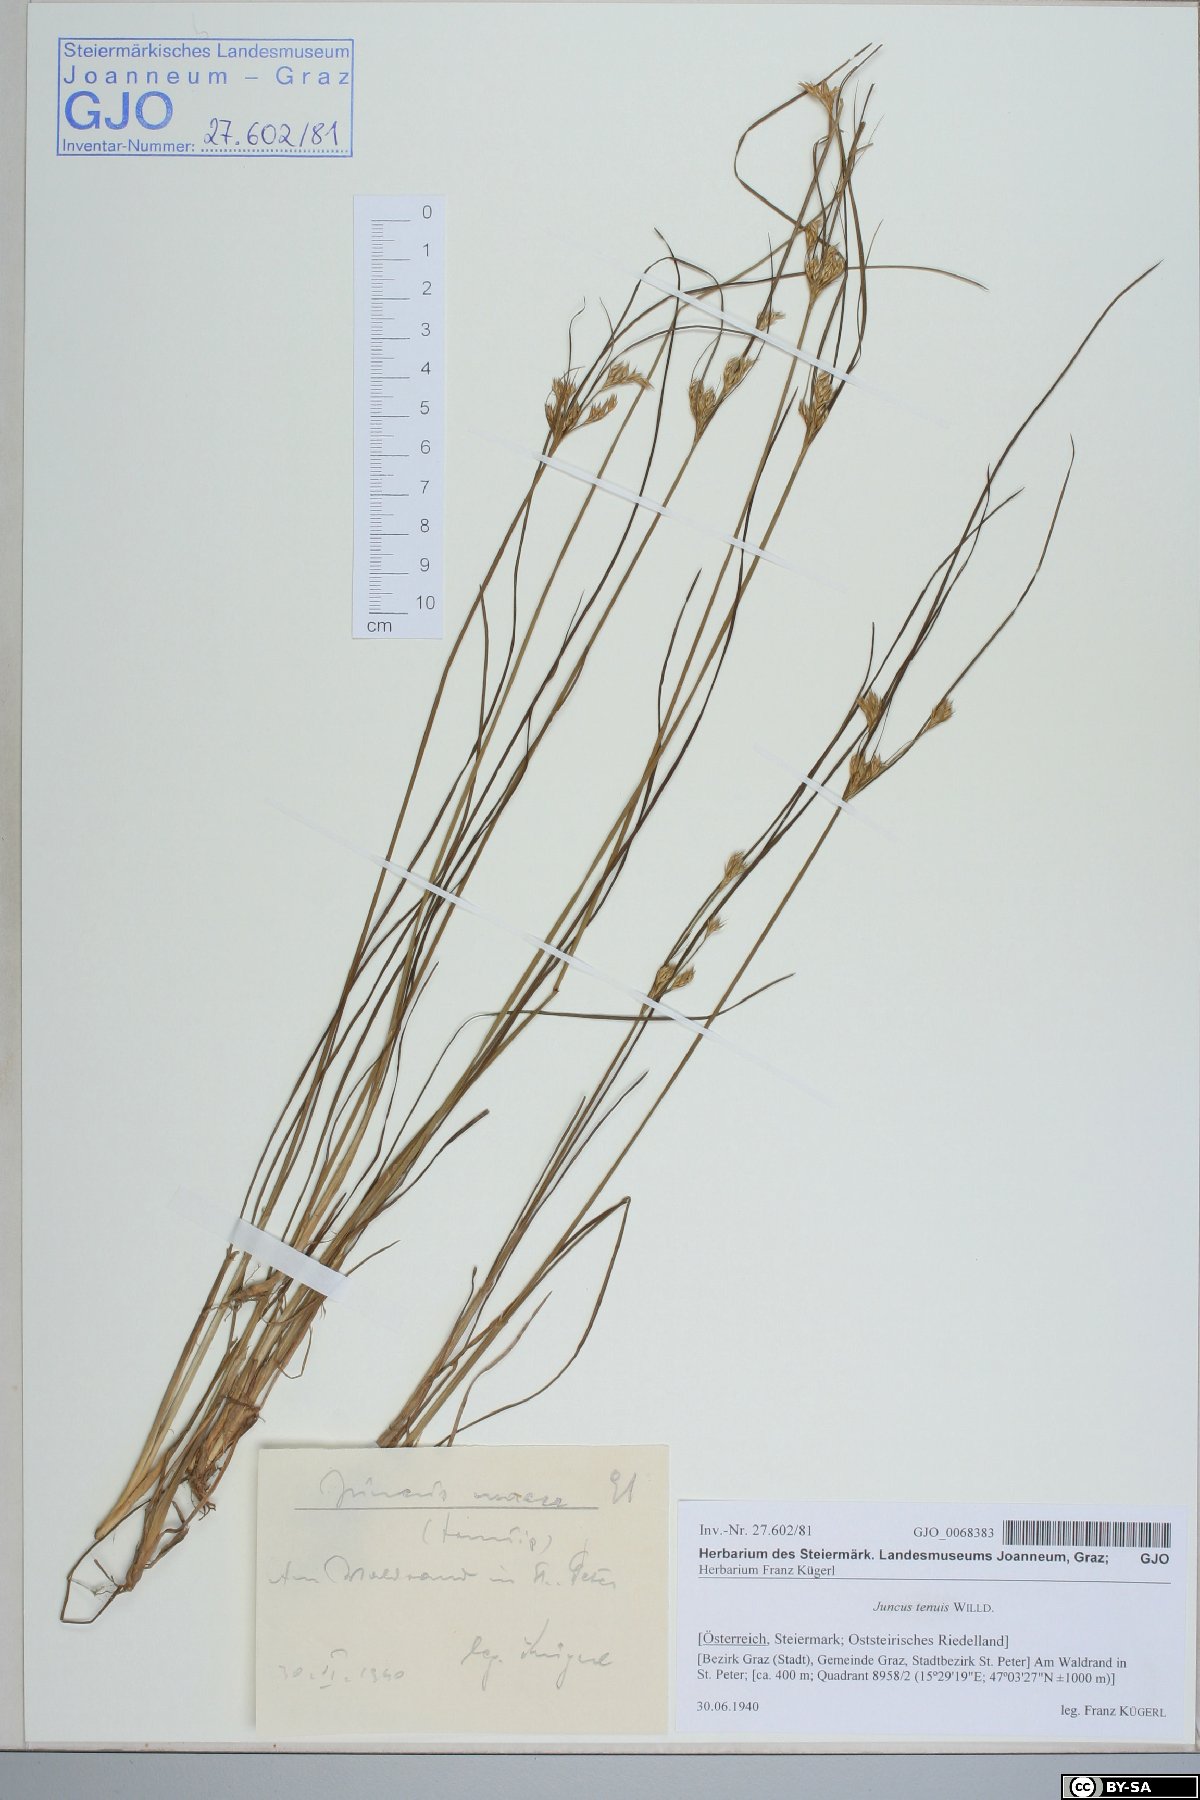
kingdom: Plantae
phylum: Tracheophyta
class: Liliopsida
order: Poales
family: Juncaceae
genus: Juncus
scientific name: Juncus tenuis
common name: Slender rush
